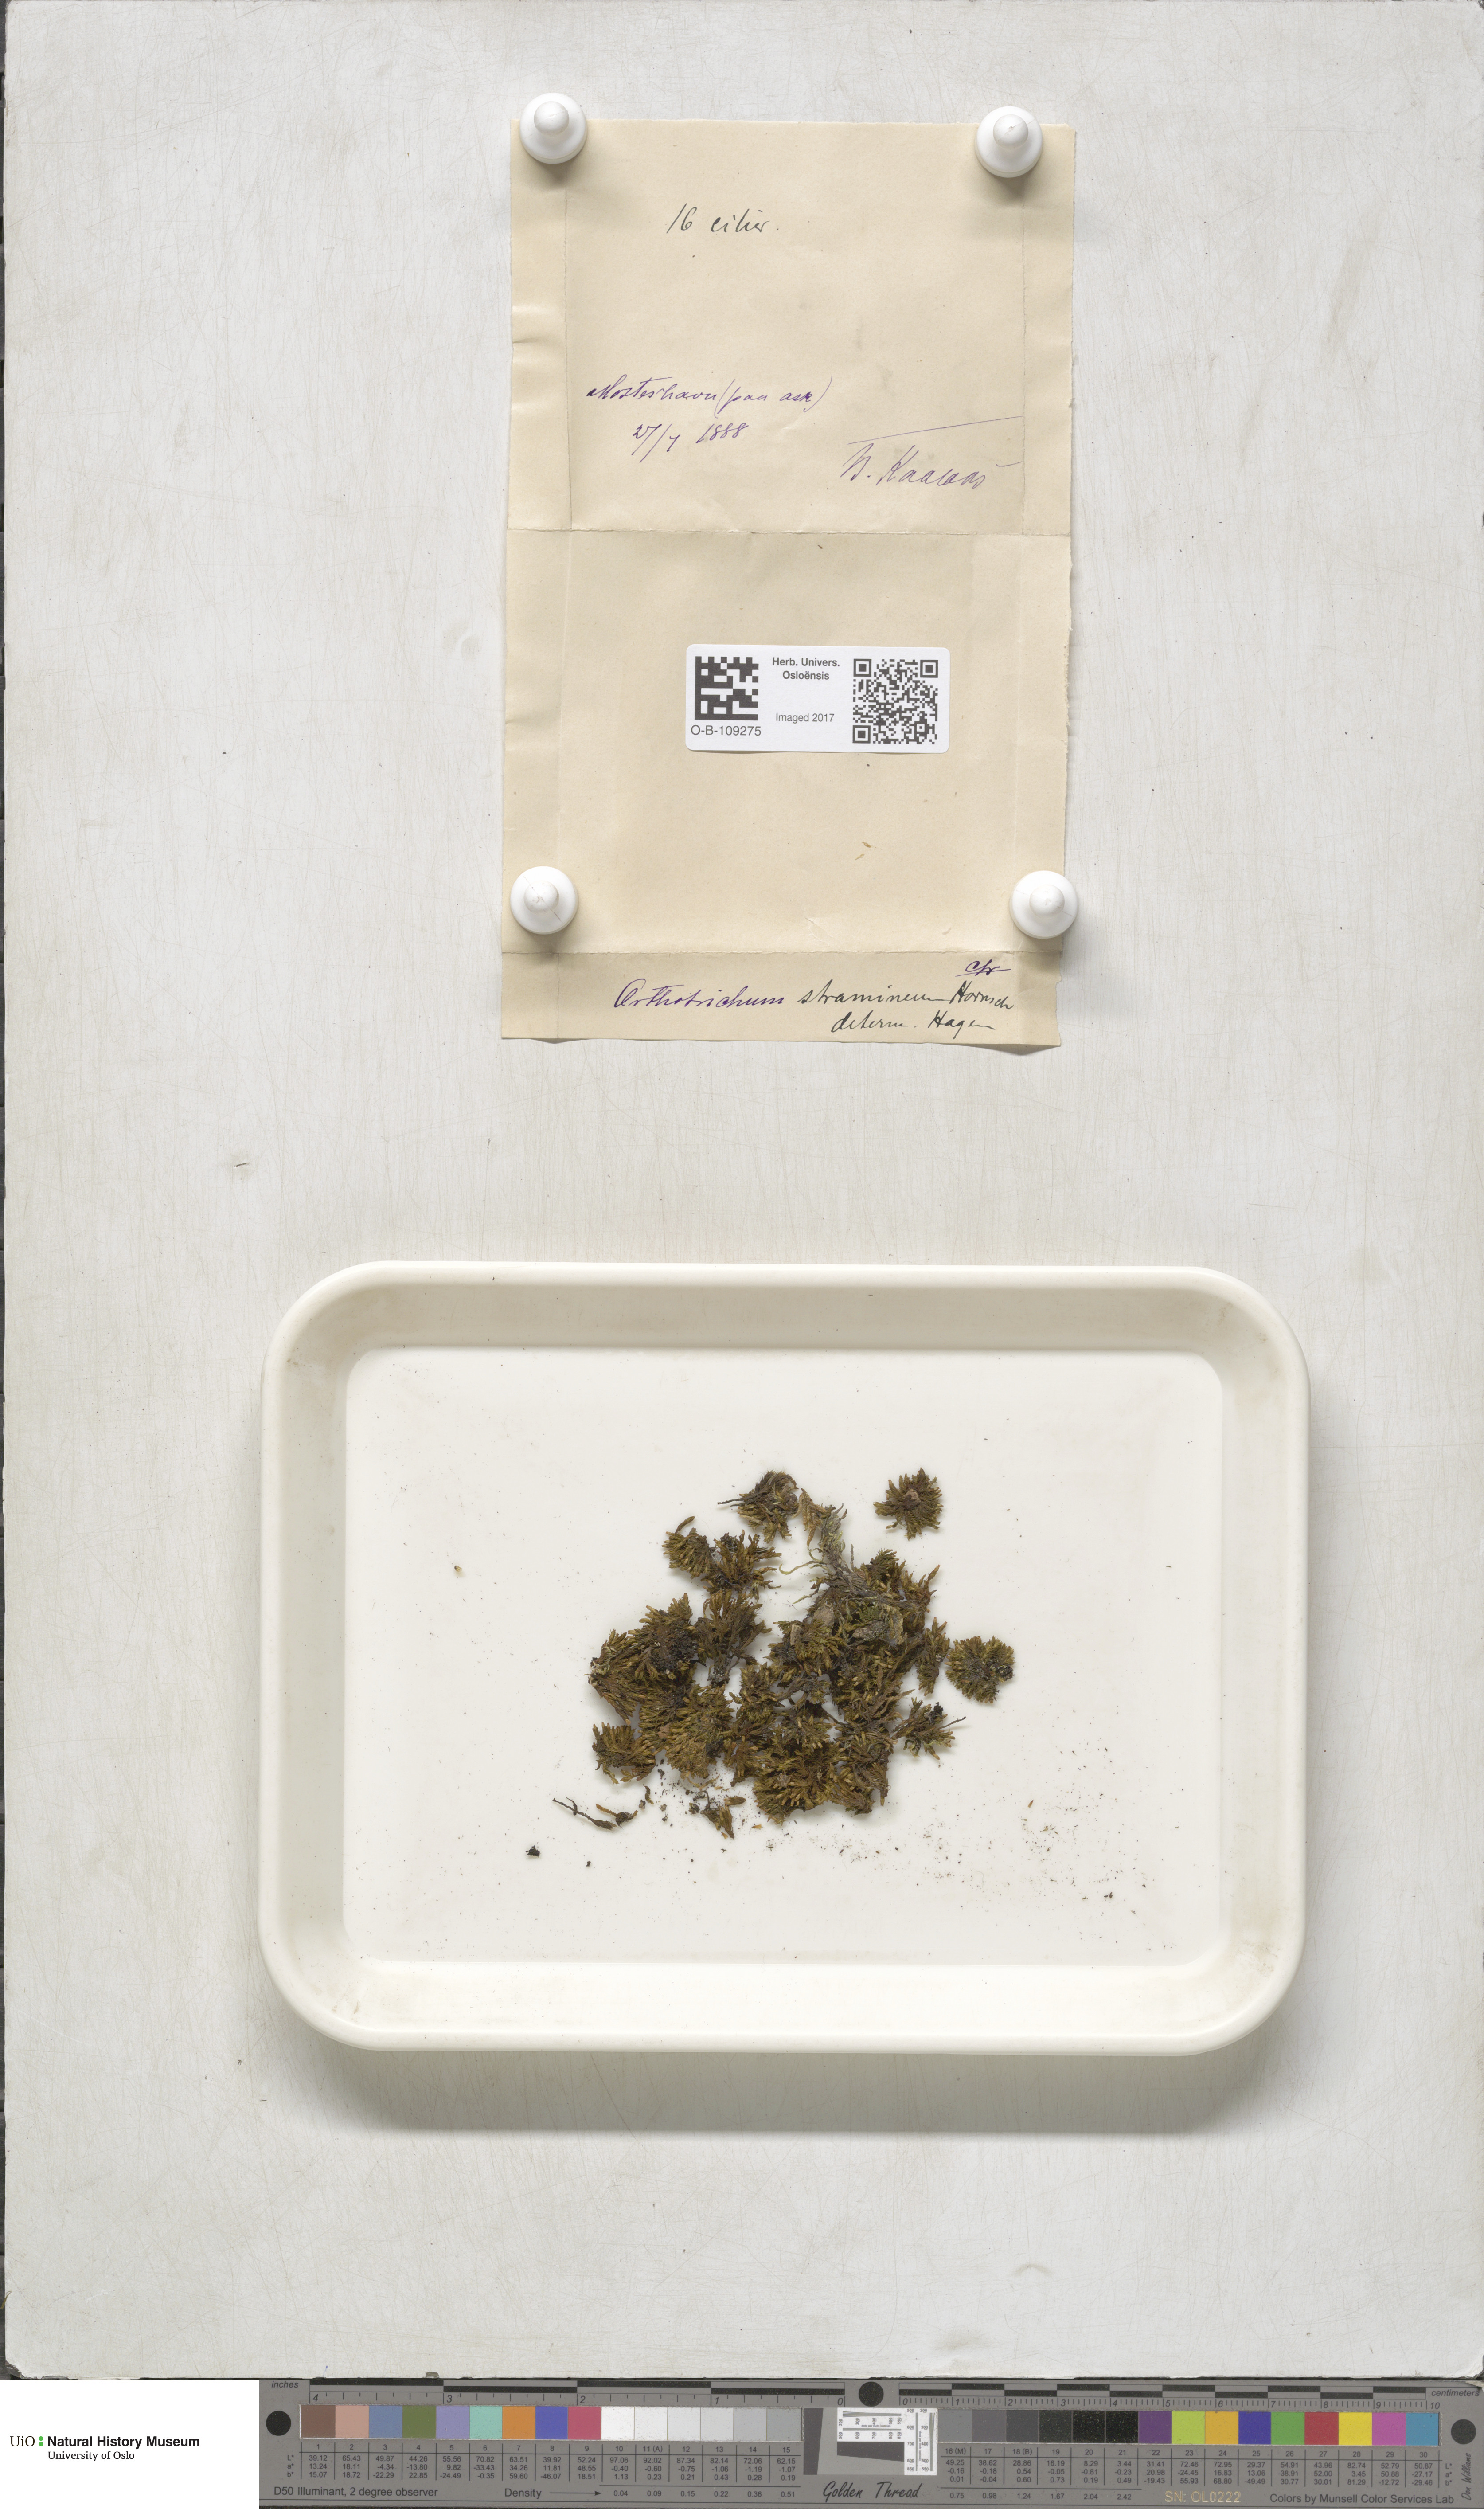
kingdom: Plantae
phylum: Bryophyta
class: Bryopsida
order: Orthotrichales
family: Orthotrichaceae
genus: Orthotrichum
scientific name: Orthotrichum stramineum
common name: Straw bristle-moss
